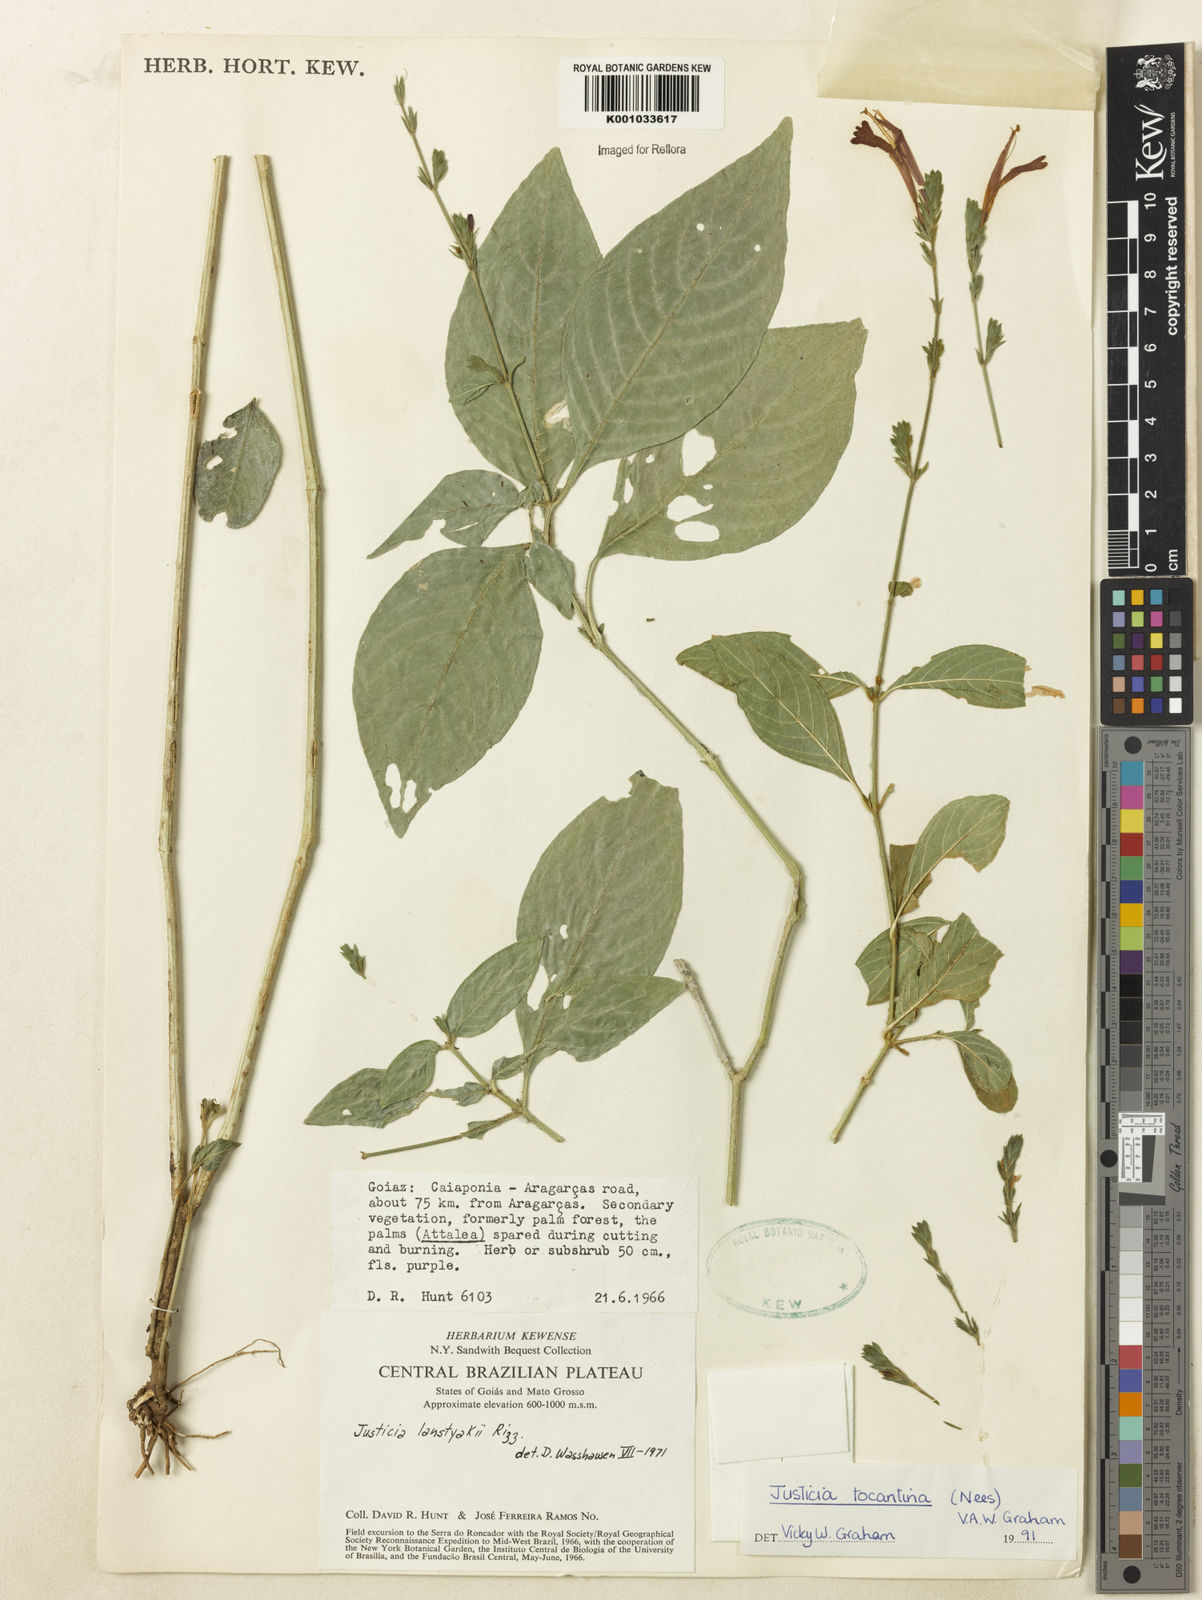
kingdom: Plantae
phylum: Tracheophyta
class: Magnoliopsida
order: Lamiales
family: Acanthaceae
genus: Justicia
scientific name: Justicia tocantina
